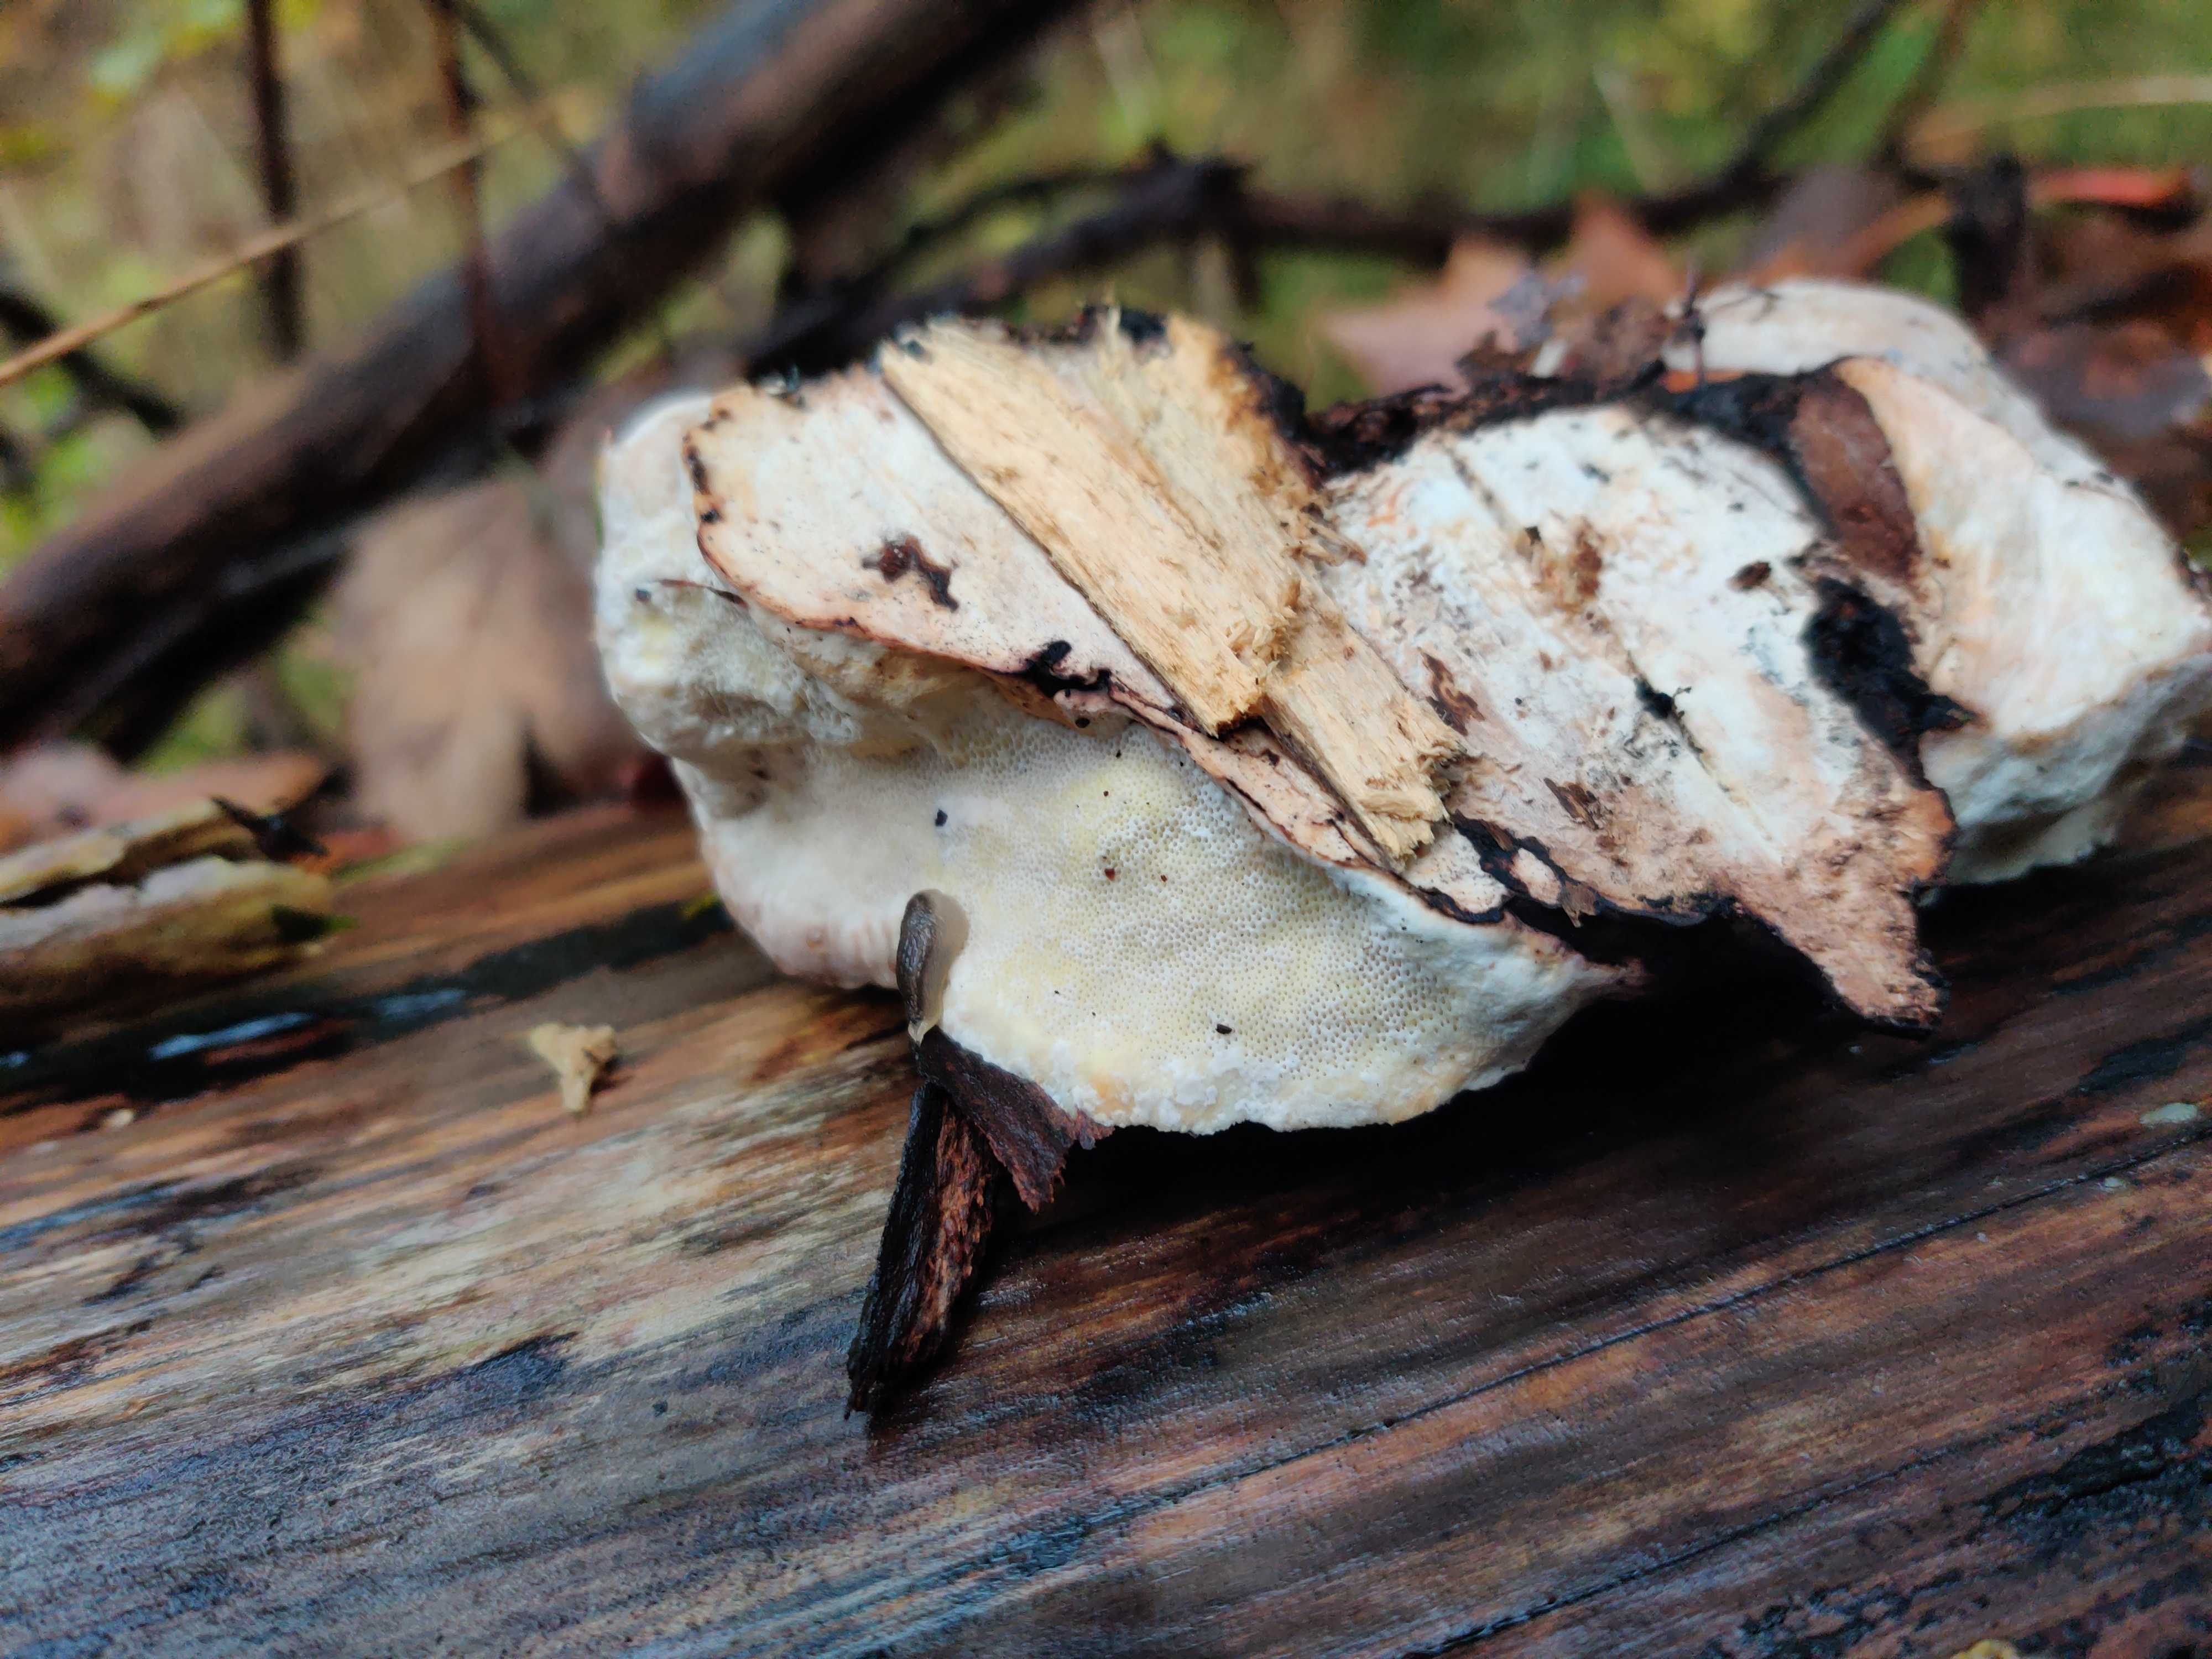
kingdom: Fungi
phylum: Basidiomycota
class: Agaricomycetes
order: Polyporales
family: Fomitopsidaceae
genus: Fomitopsis
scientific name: Fomitopsis pinicola
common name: randbæltet hovporesvamp
